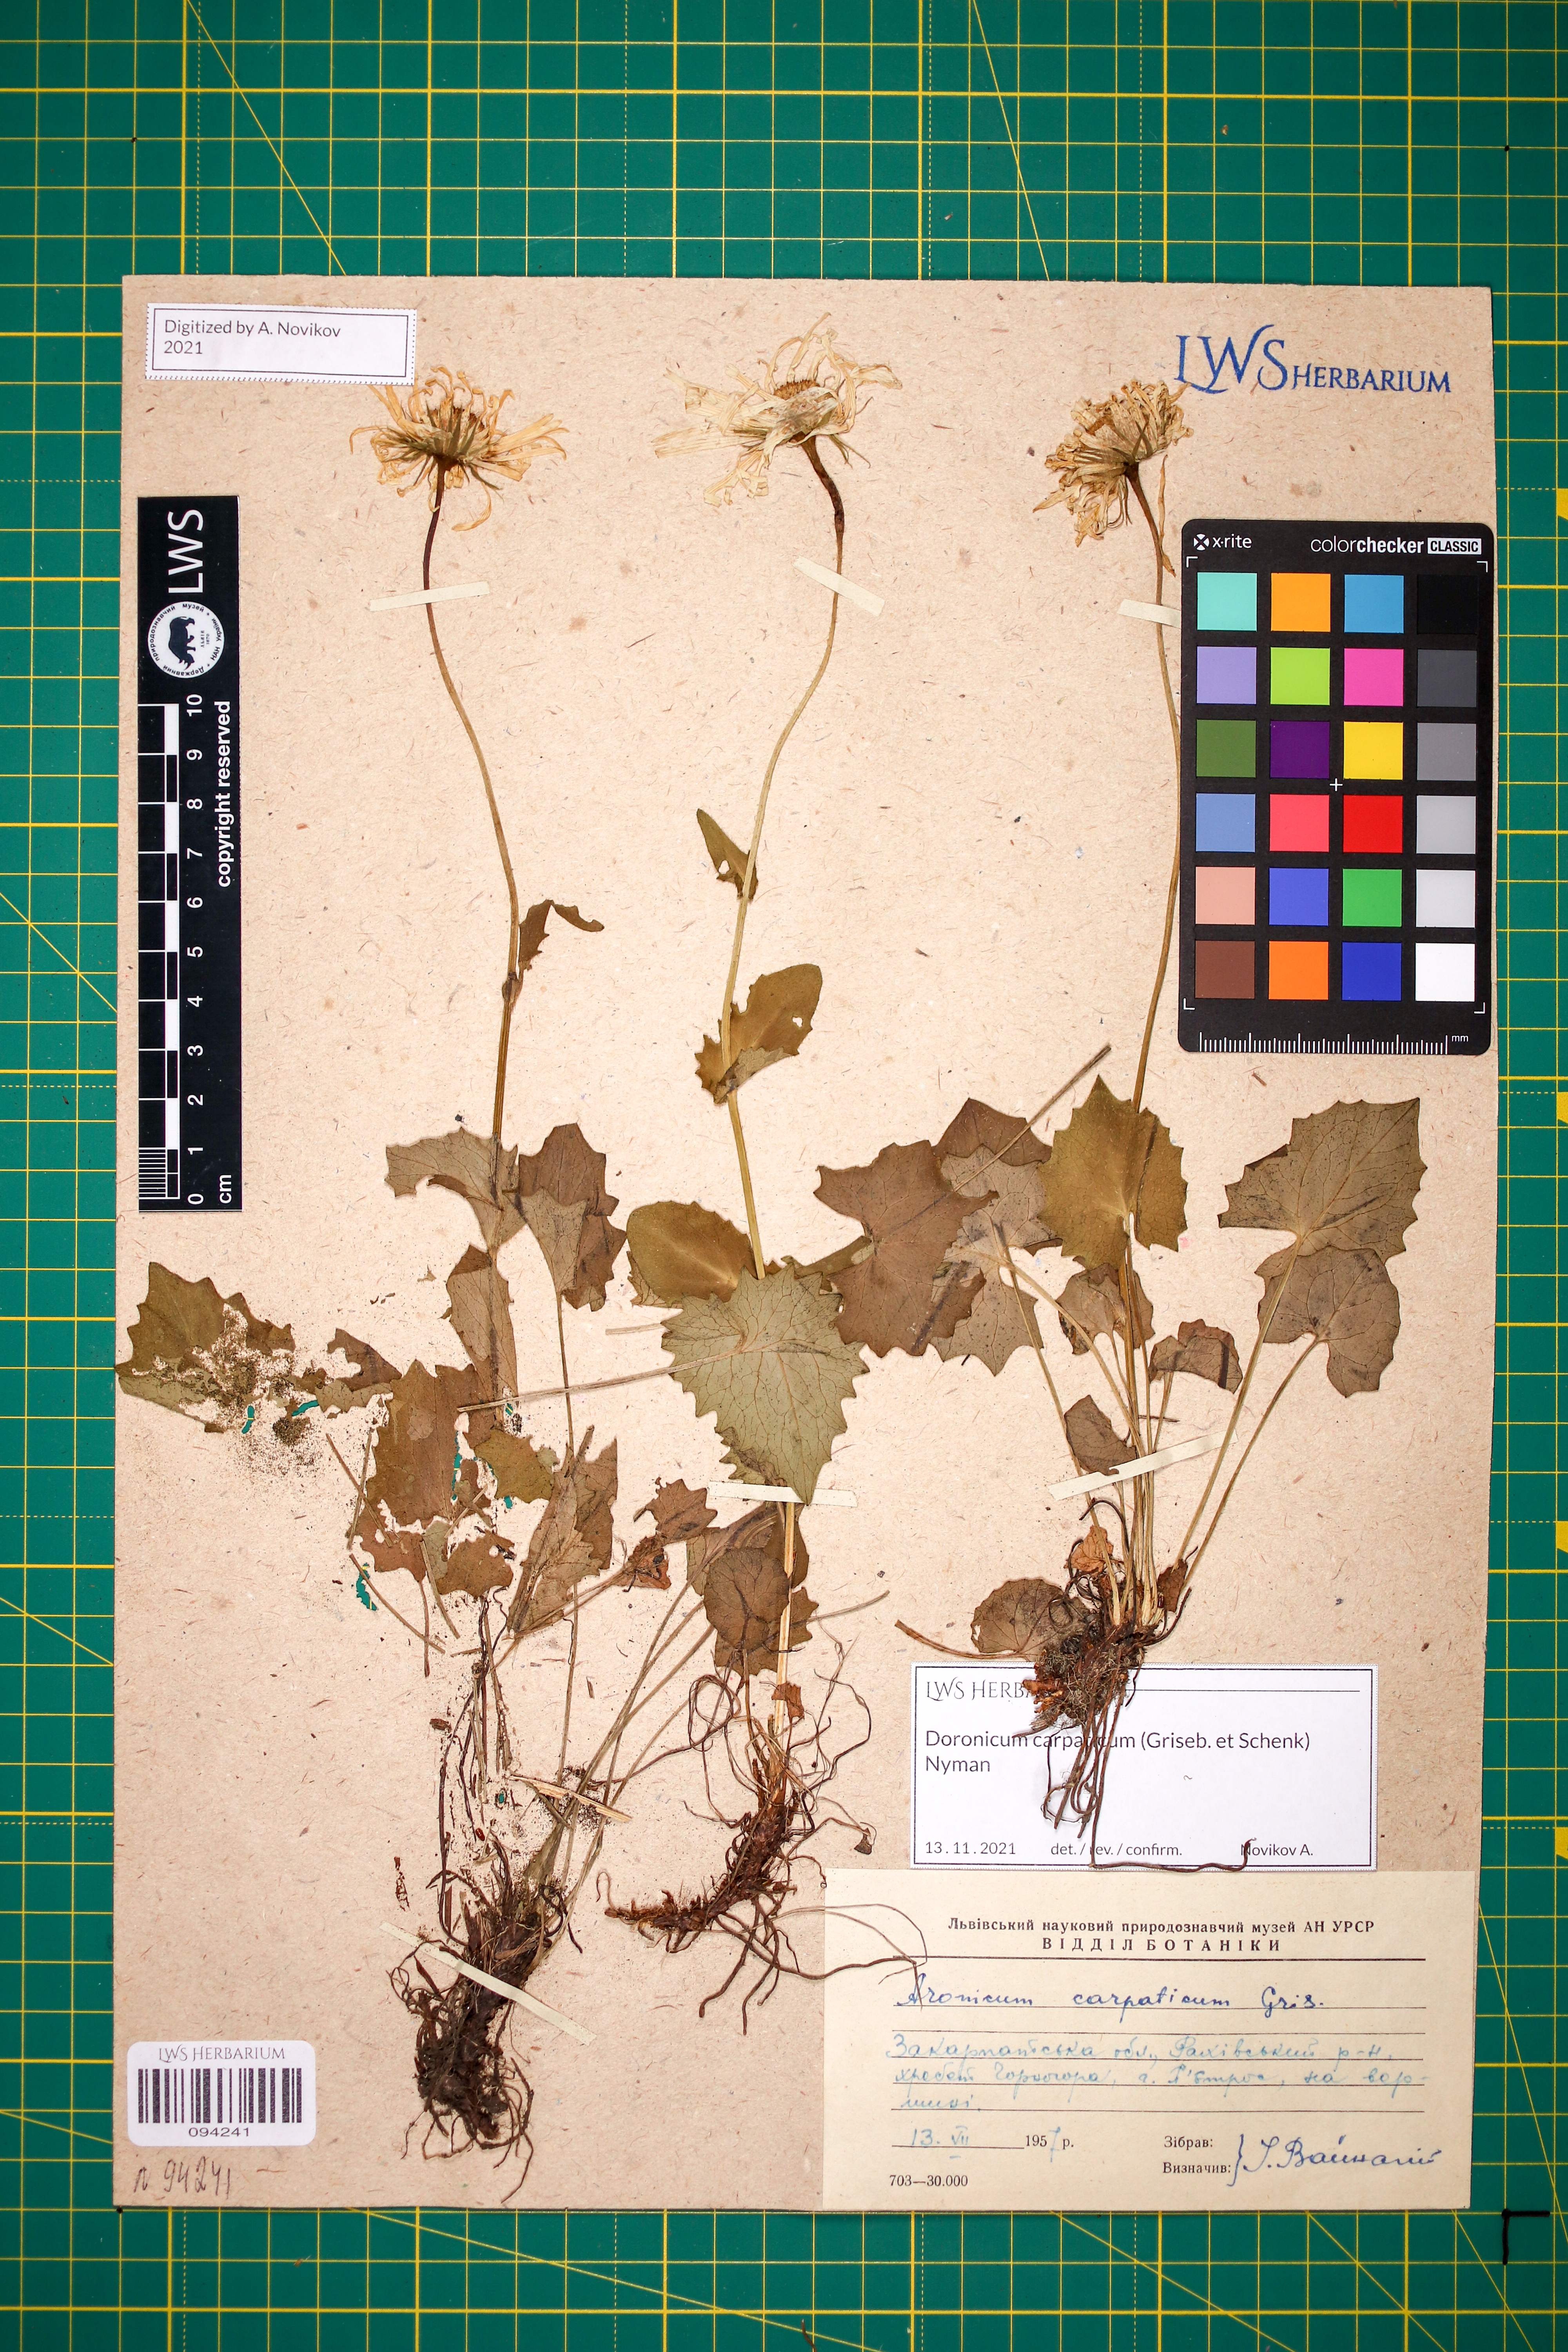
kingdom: Plantae
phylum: Tracheophyta
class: Magnoliopsida
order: Asterales
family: Asteraceae
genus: Doronicum
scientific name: Doronicum carpaticum
